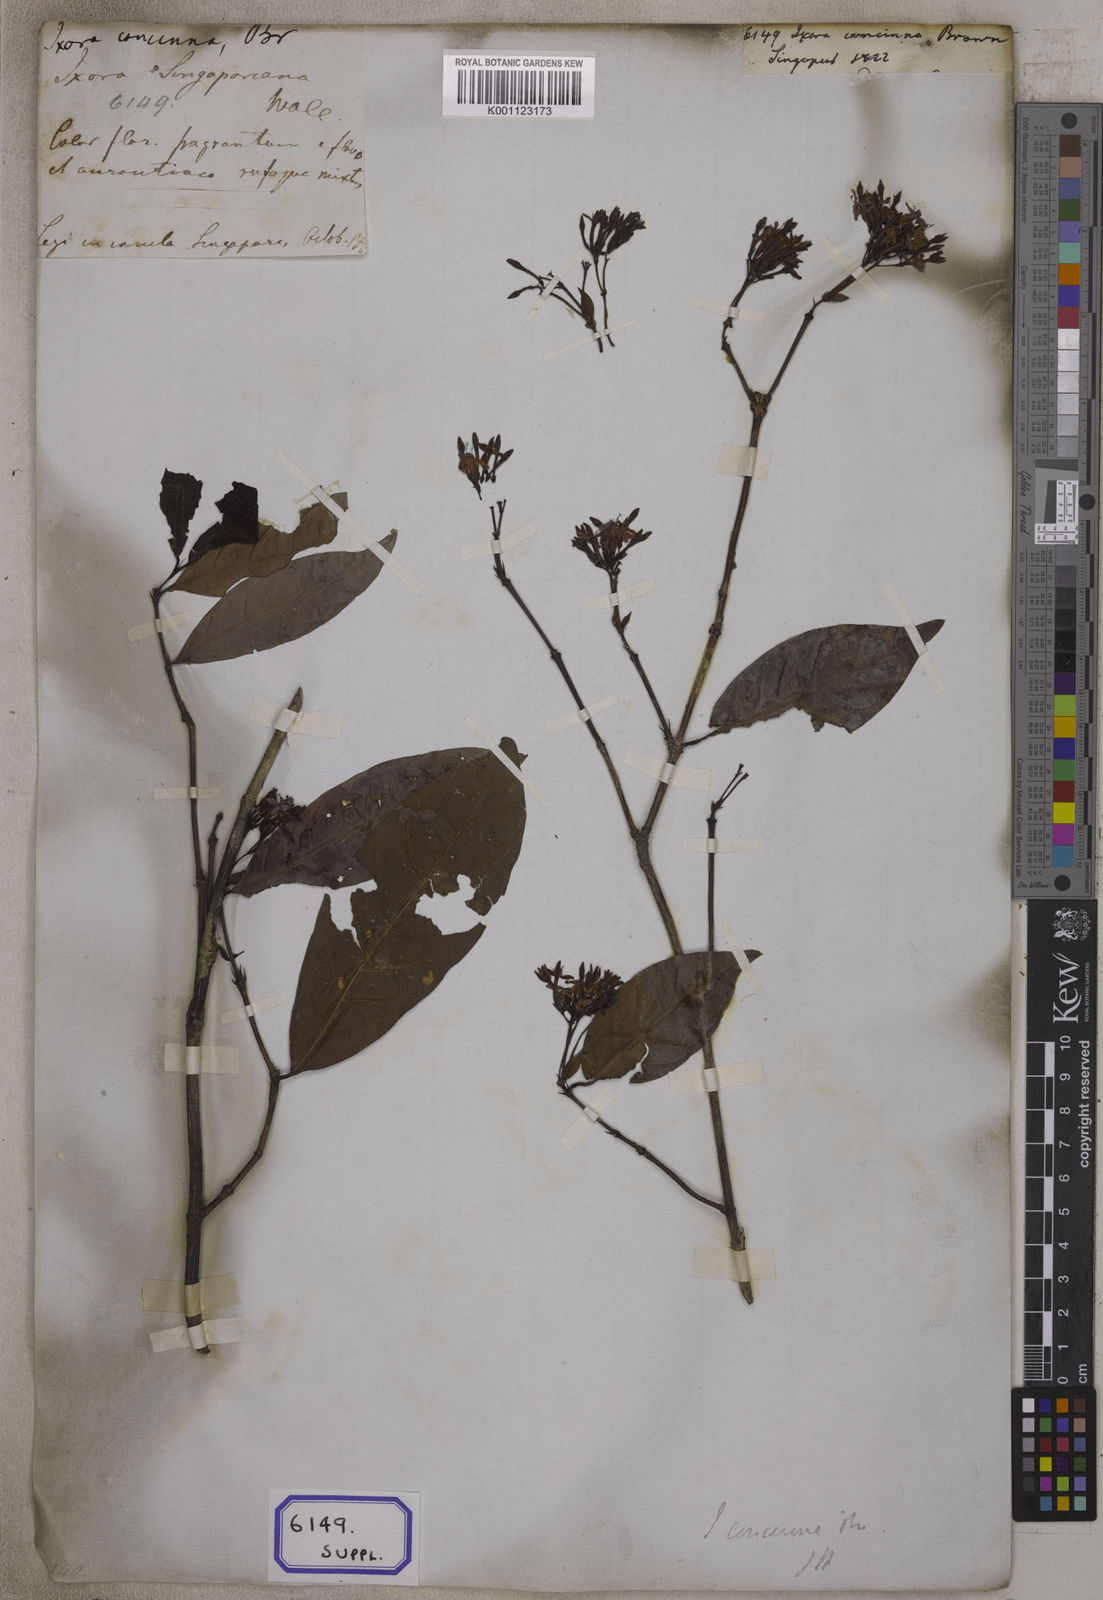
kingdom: Plantae
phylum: Tracheophyta
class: Magnoliopsida
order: Gentianales
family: Rubiaceae
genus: Ixora
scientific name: Ixora
